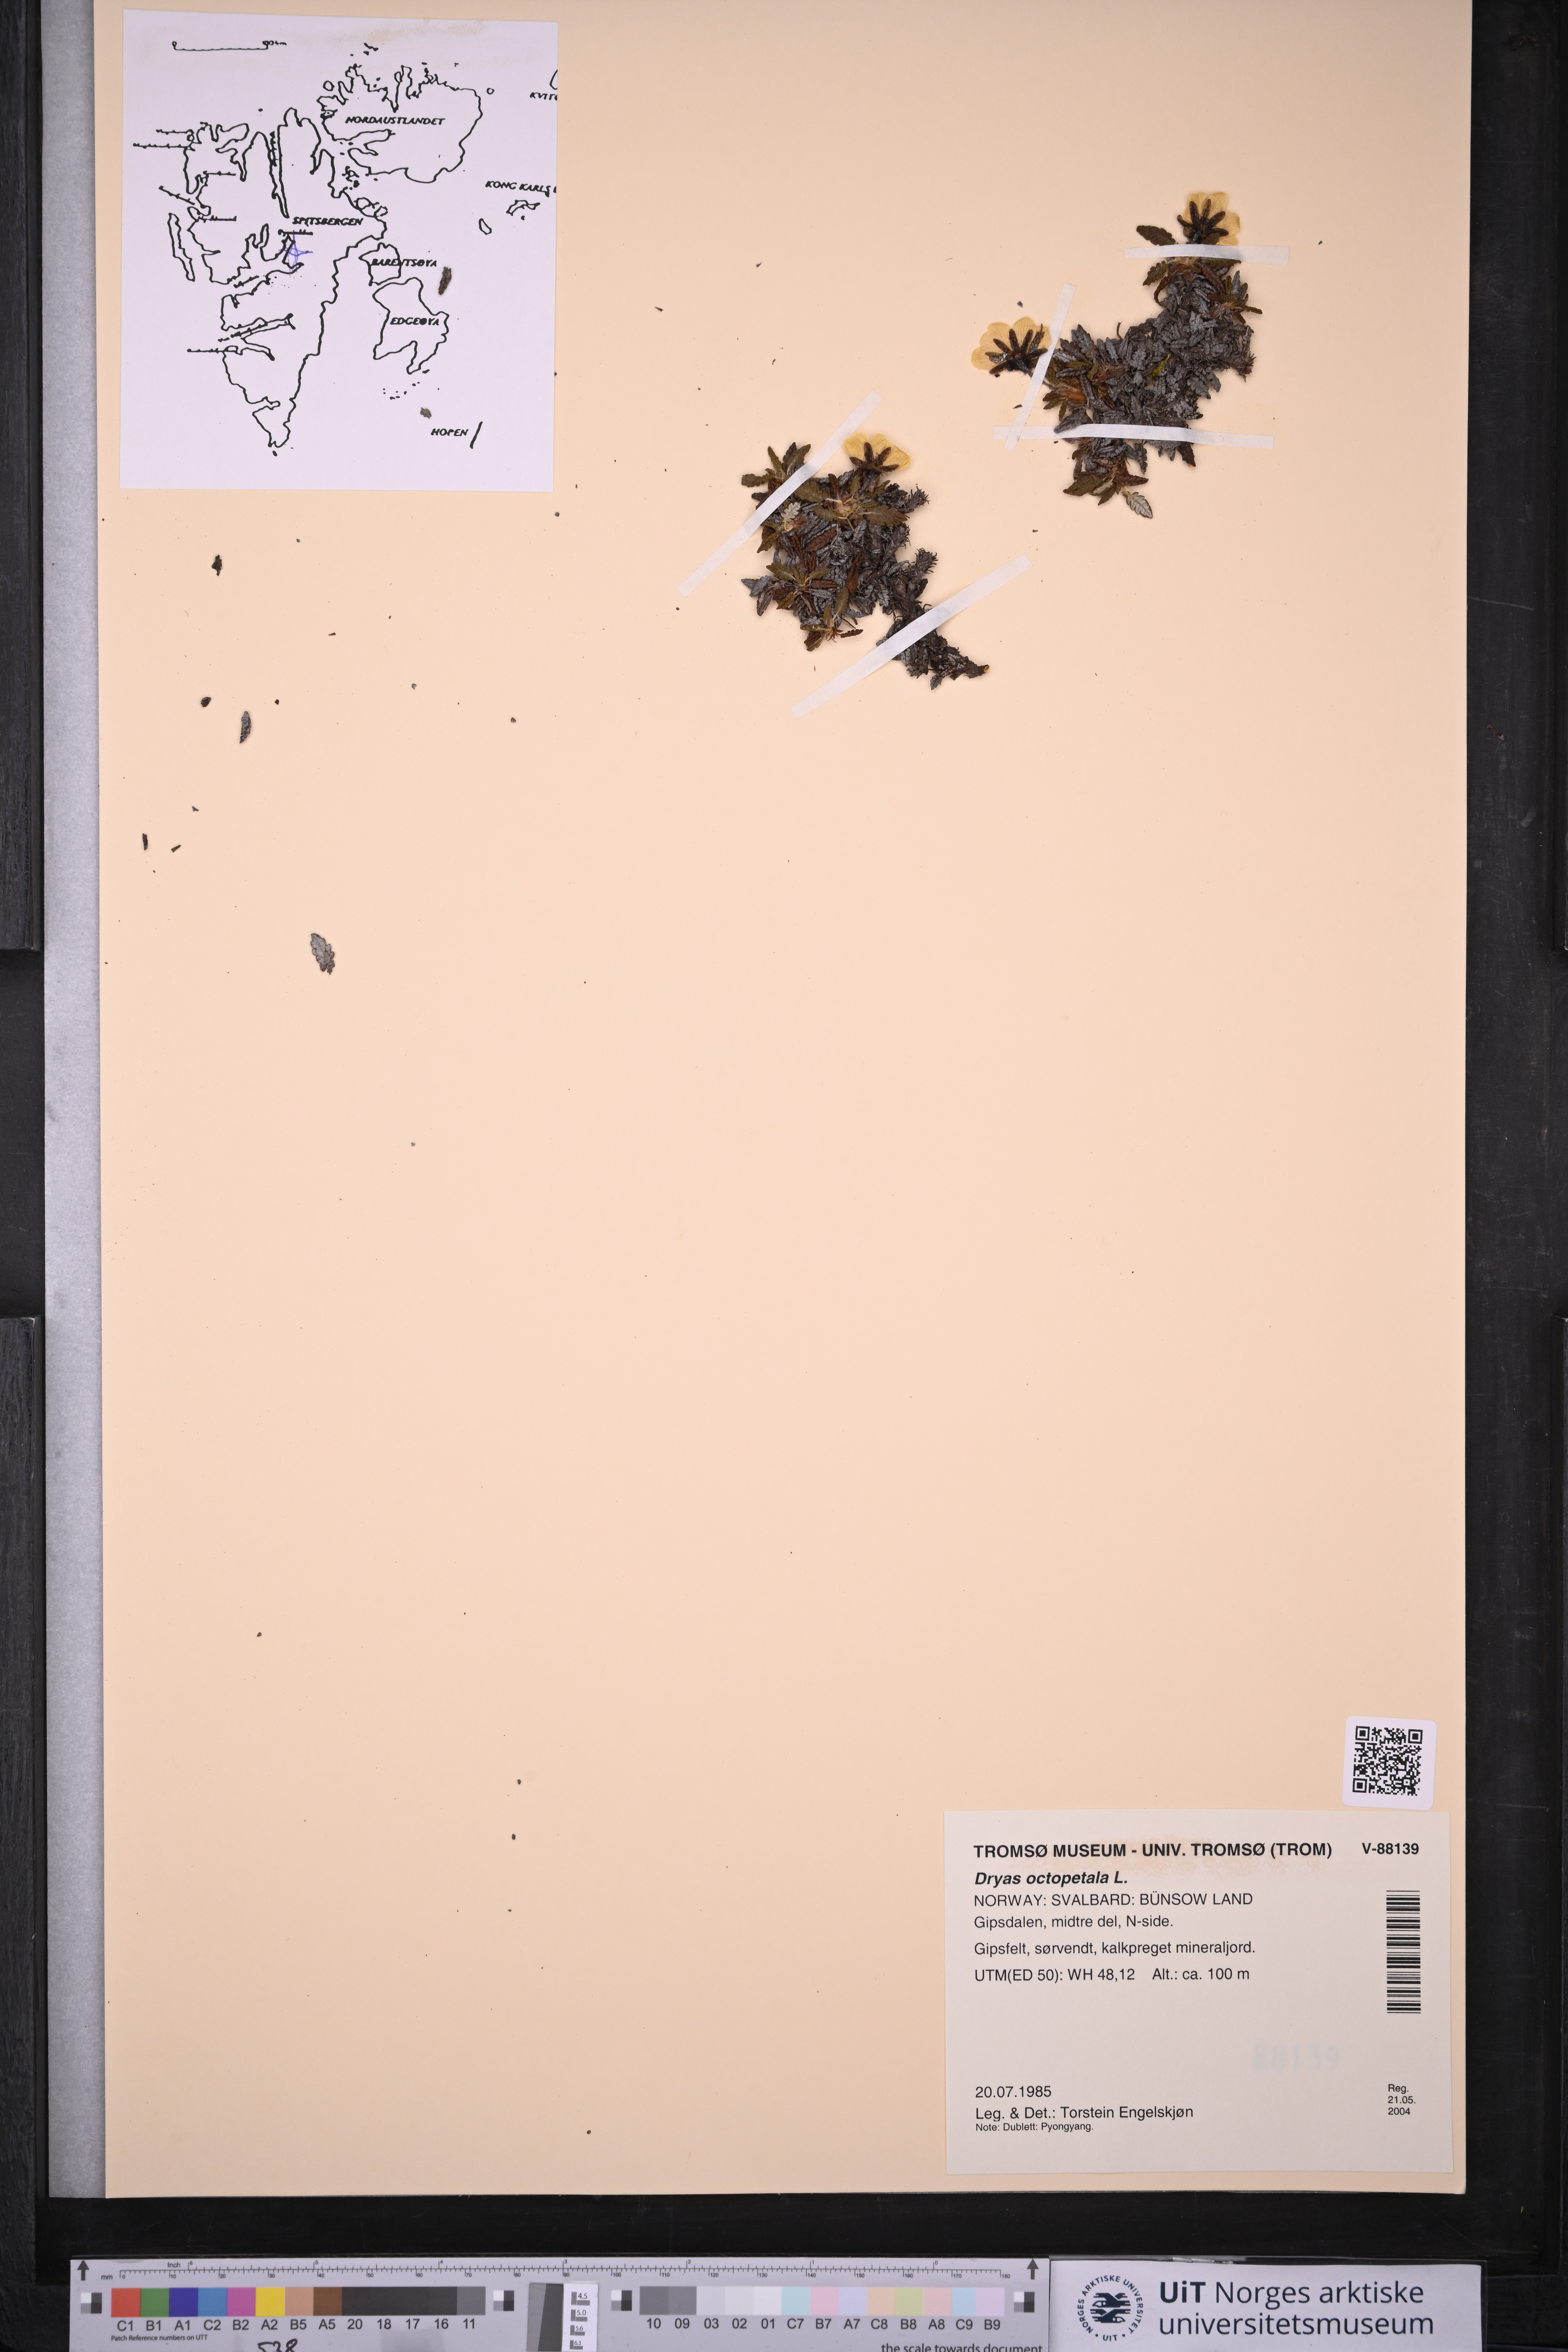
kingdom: Plantae
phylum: Tracheophyta
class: Magnoliopsida
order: Rosales
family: Rosaceae
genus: Dryas
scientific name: Dryas octopetala
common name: Eight-petal mountain-avens
